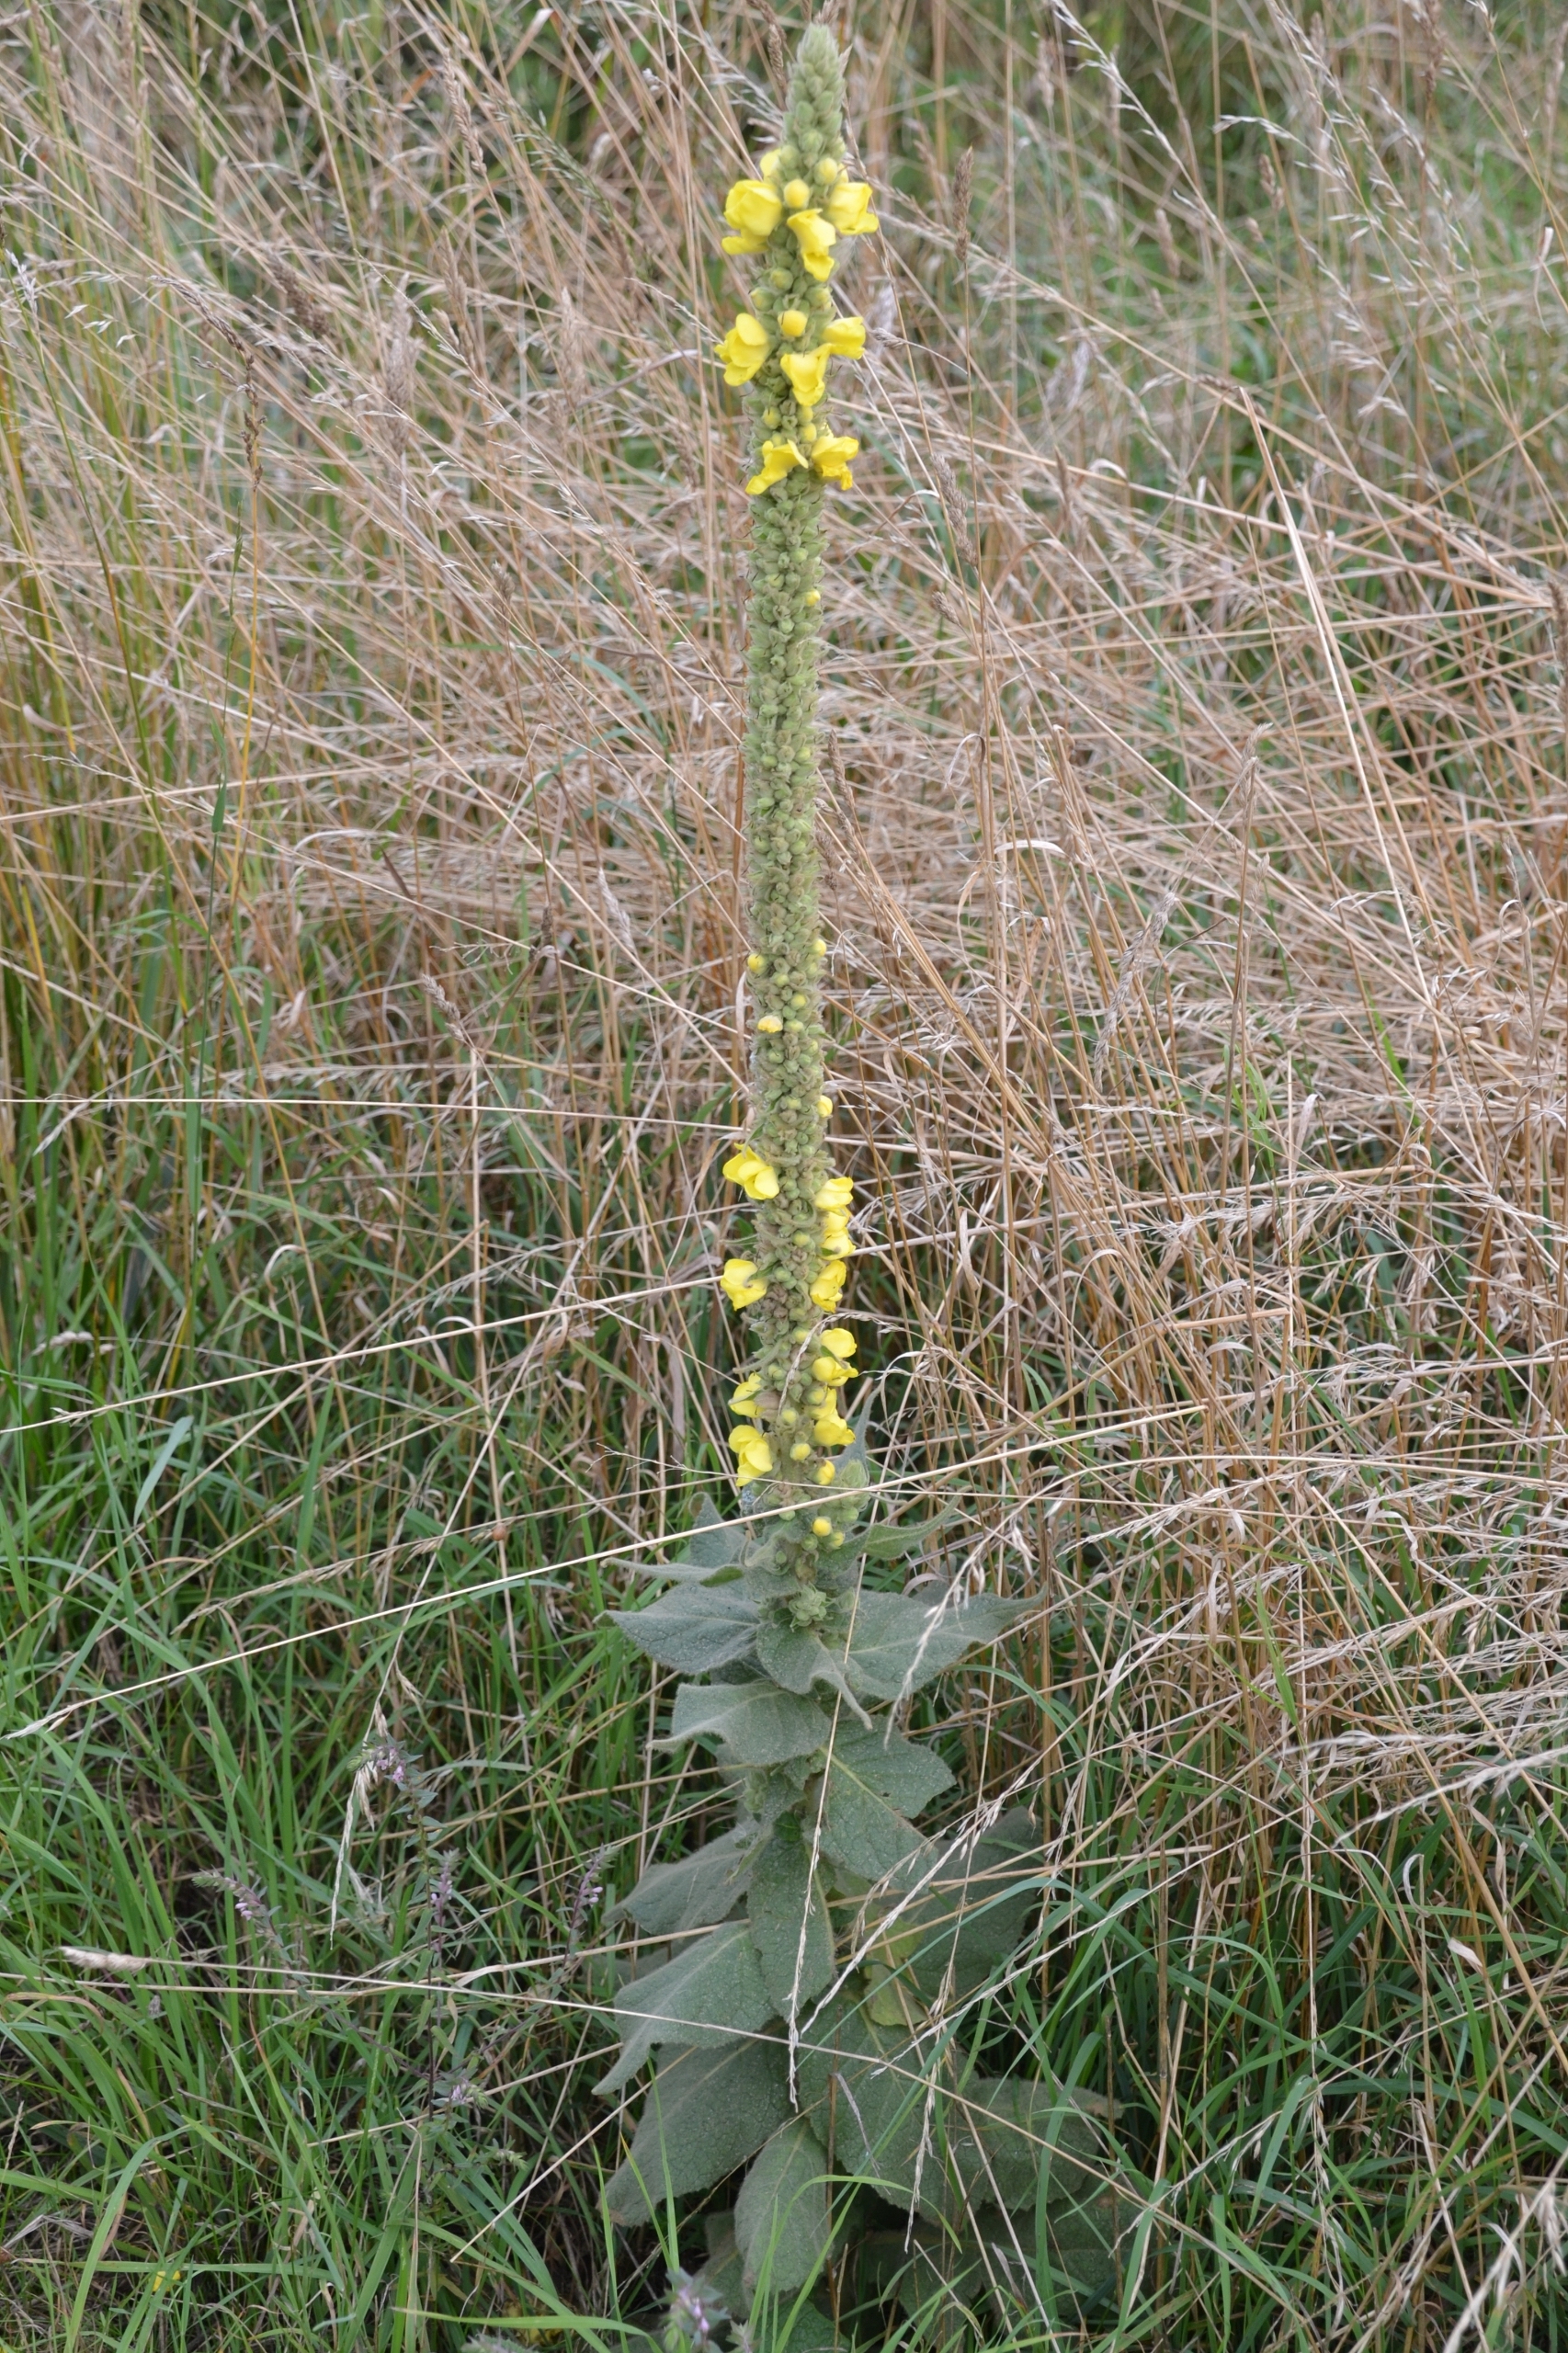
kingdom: Plantae
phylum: Tracheophyta
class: Magnoliopsida
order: Lamiales
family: Scrophulariaceae
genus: Verbascum
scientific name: Verbascum densiflorum
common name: Uldbladet kongelys
